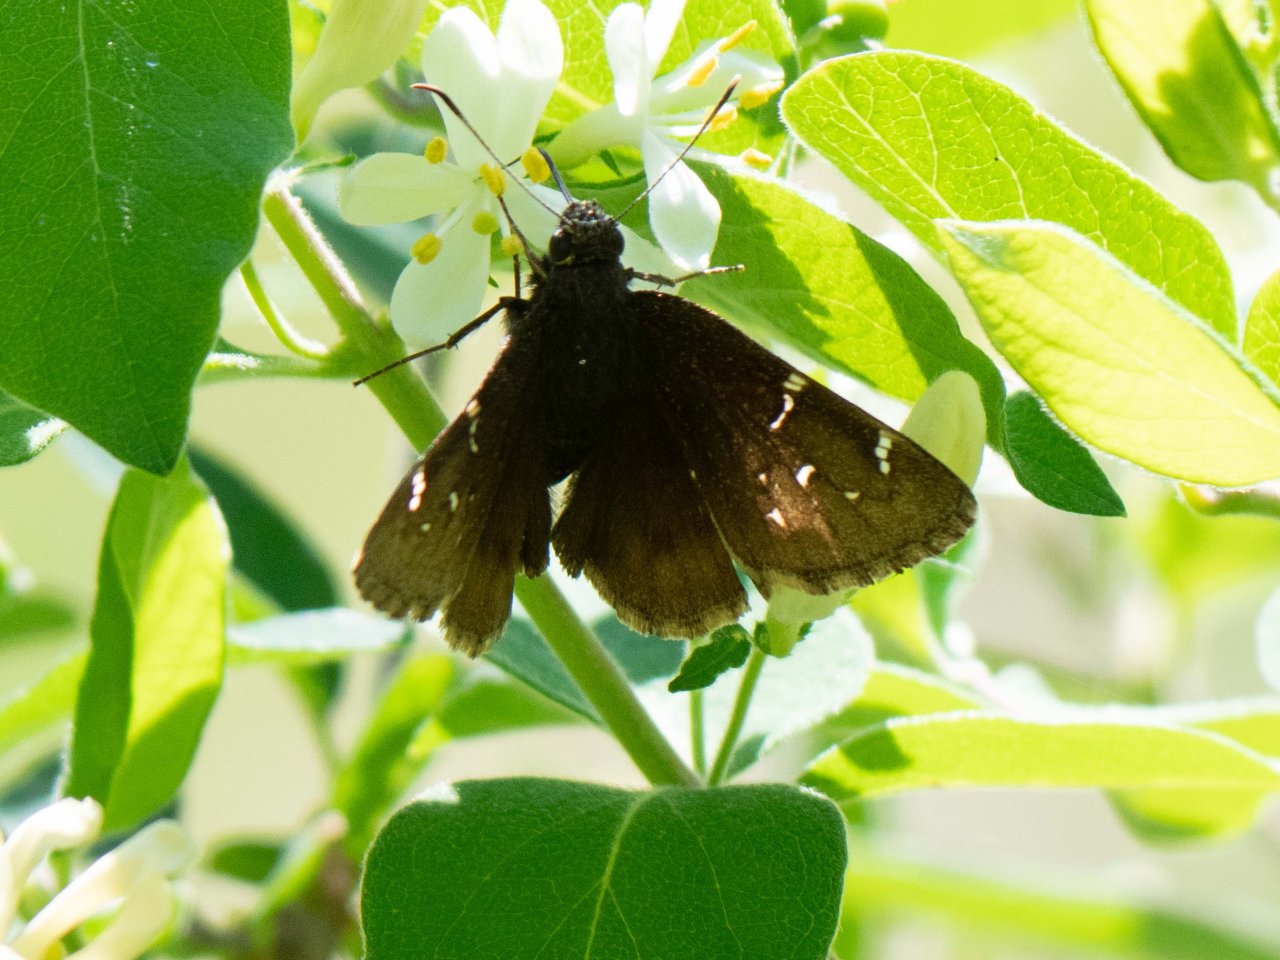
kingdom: Animalia
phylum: Arthropoda
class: Insecta
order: Lepidoptera
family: Hesperiidae
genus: Autochton
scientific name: Autochton
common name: Northern Cloudywing
